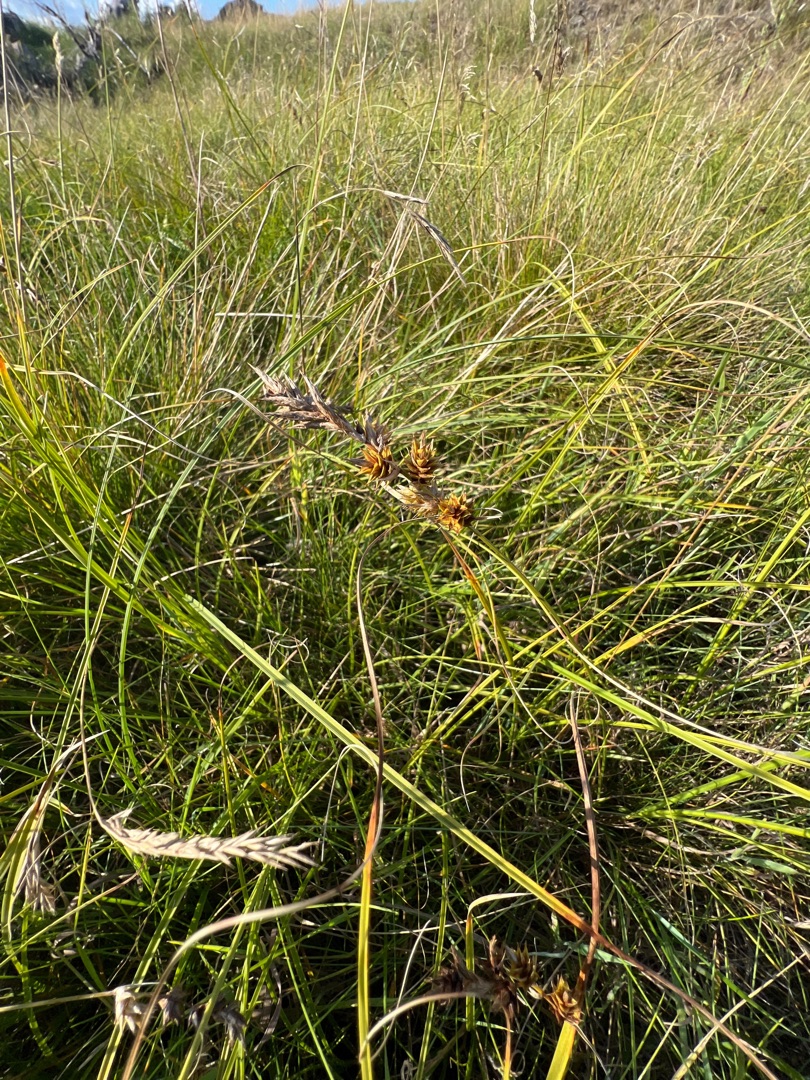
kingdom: Plantae
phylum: Tracheophyta
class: Liliopsida
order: Poales
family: Cyperaceae
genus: Carex
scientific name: Carex arenaria
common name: Sand-star
